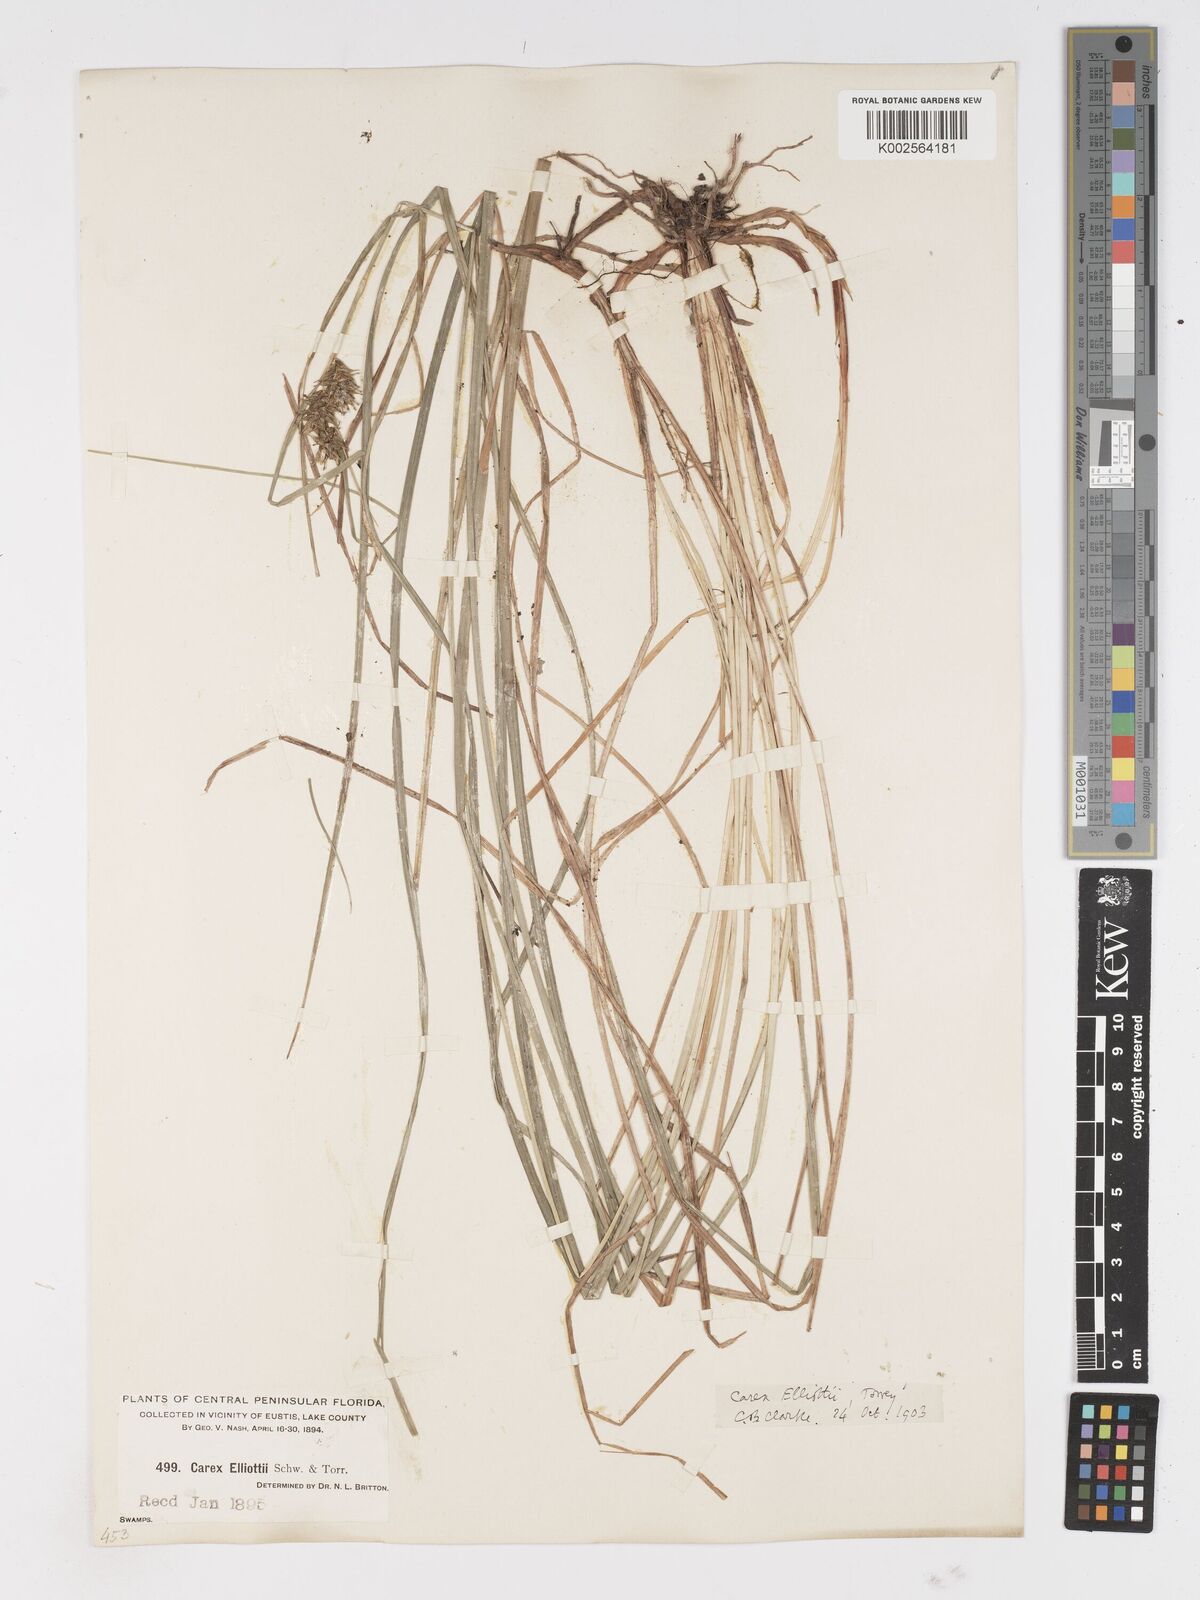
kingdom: Plantae
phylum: Tracheophyta
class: Liliopsida
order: Poales
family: Cyperaceae
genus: Carex
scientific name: Carex elliottii
